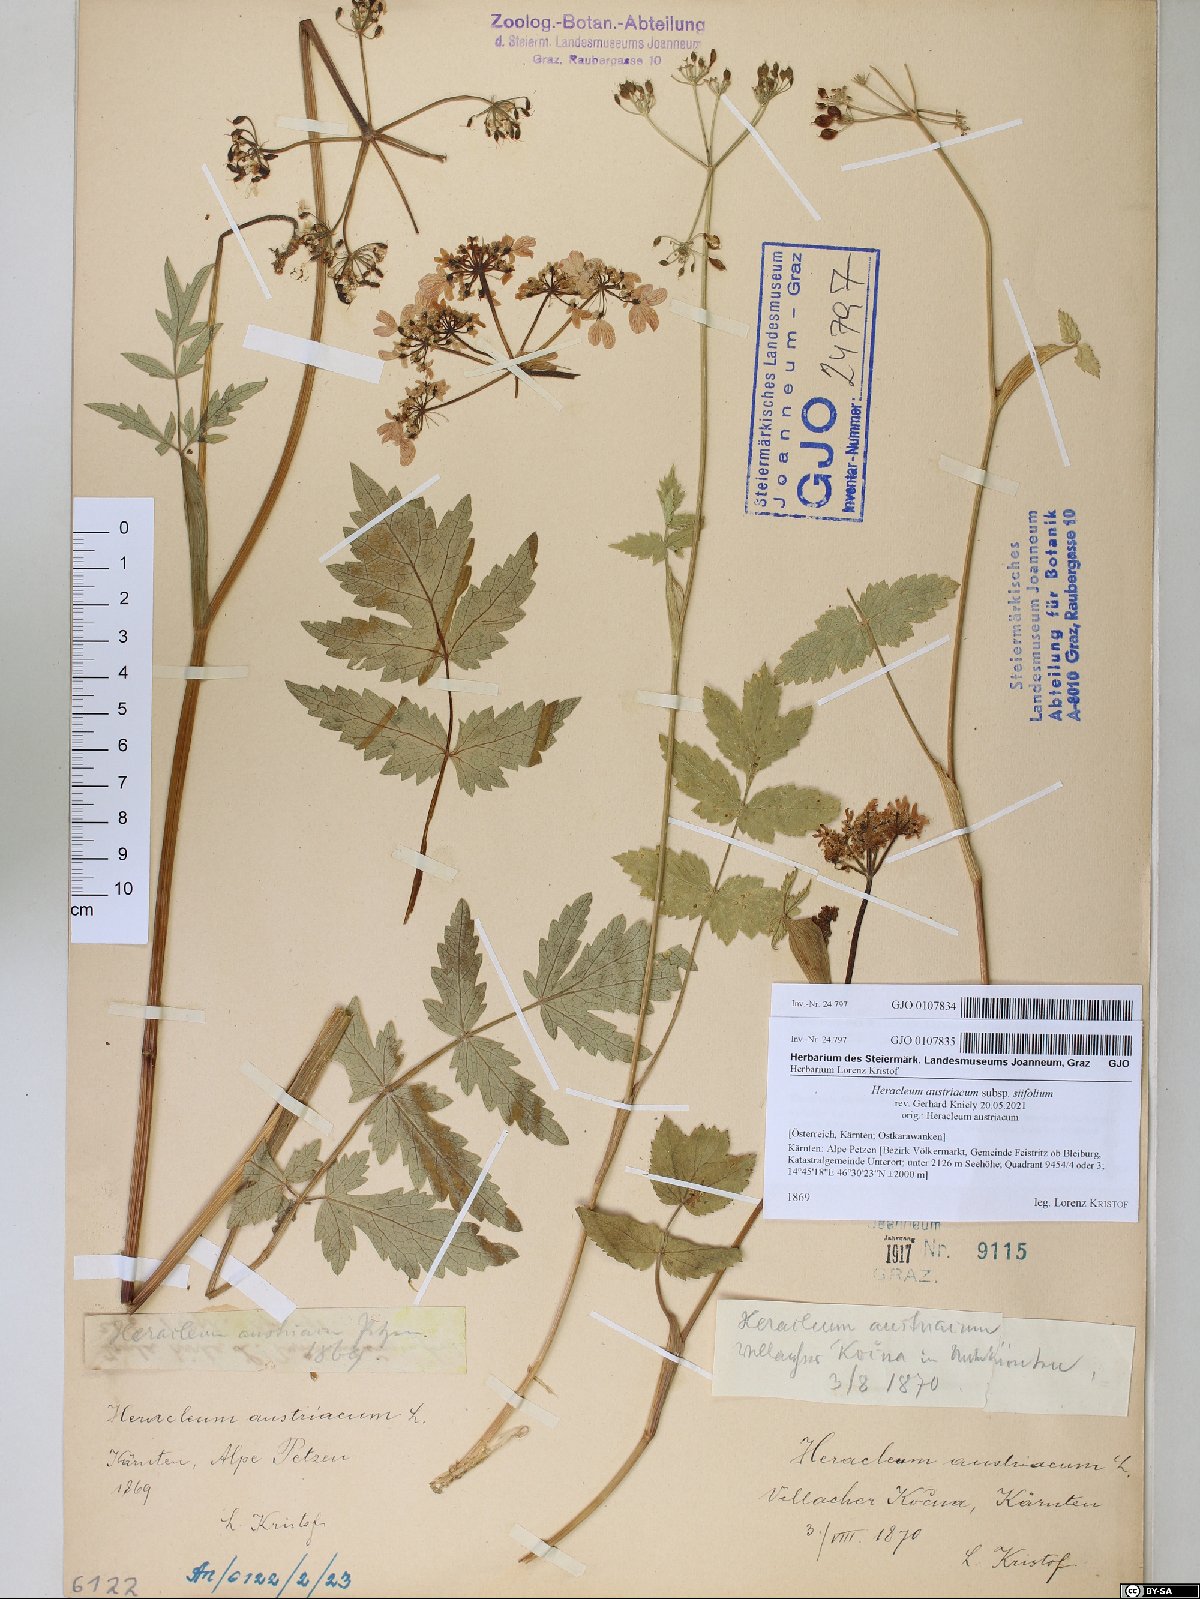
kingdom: Plantae
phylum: Tracheophyta
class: Magnoliopsida
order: Apiales
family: Apiaceae
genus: Heracleum
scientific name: Heracleum austriacum
